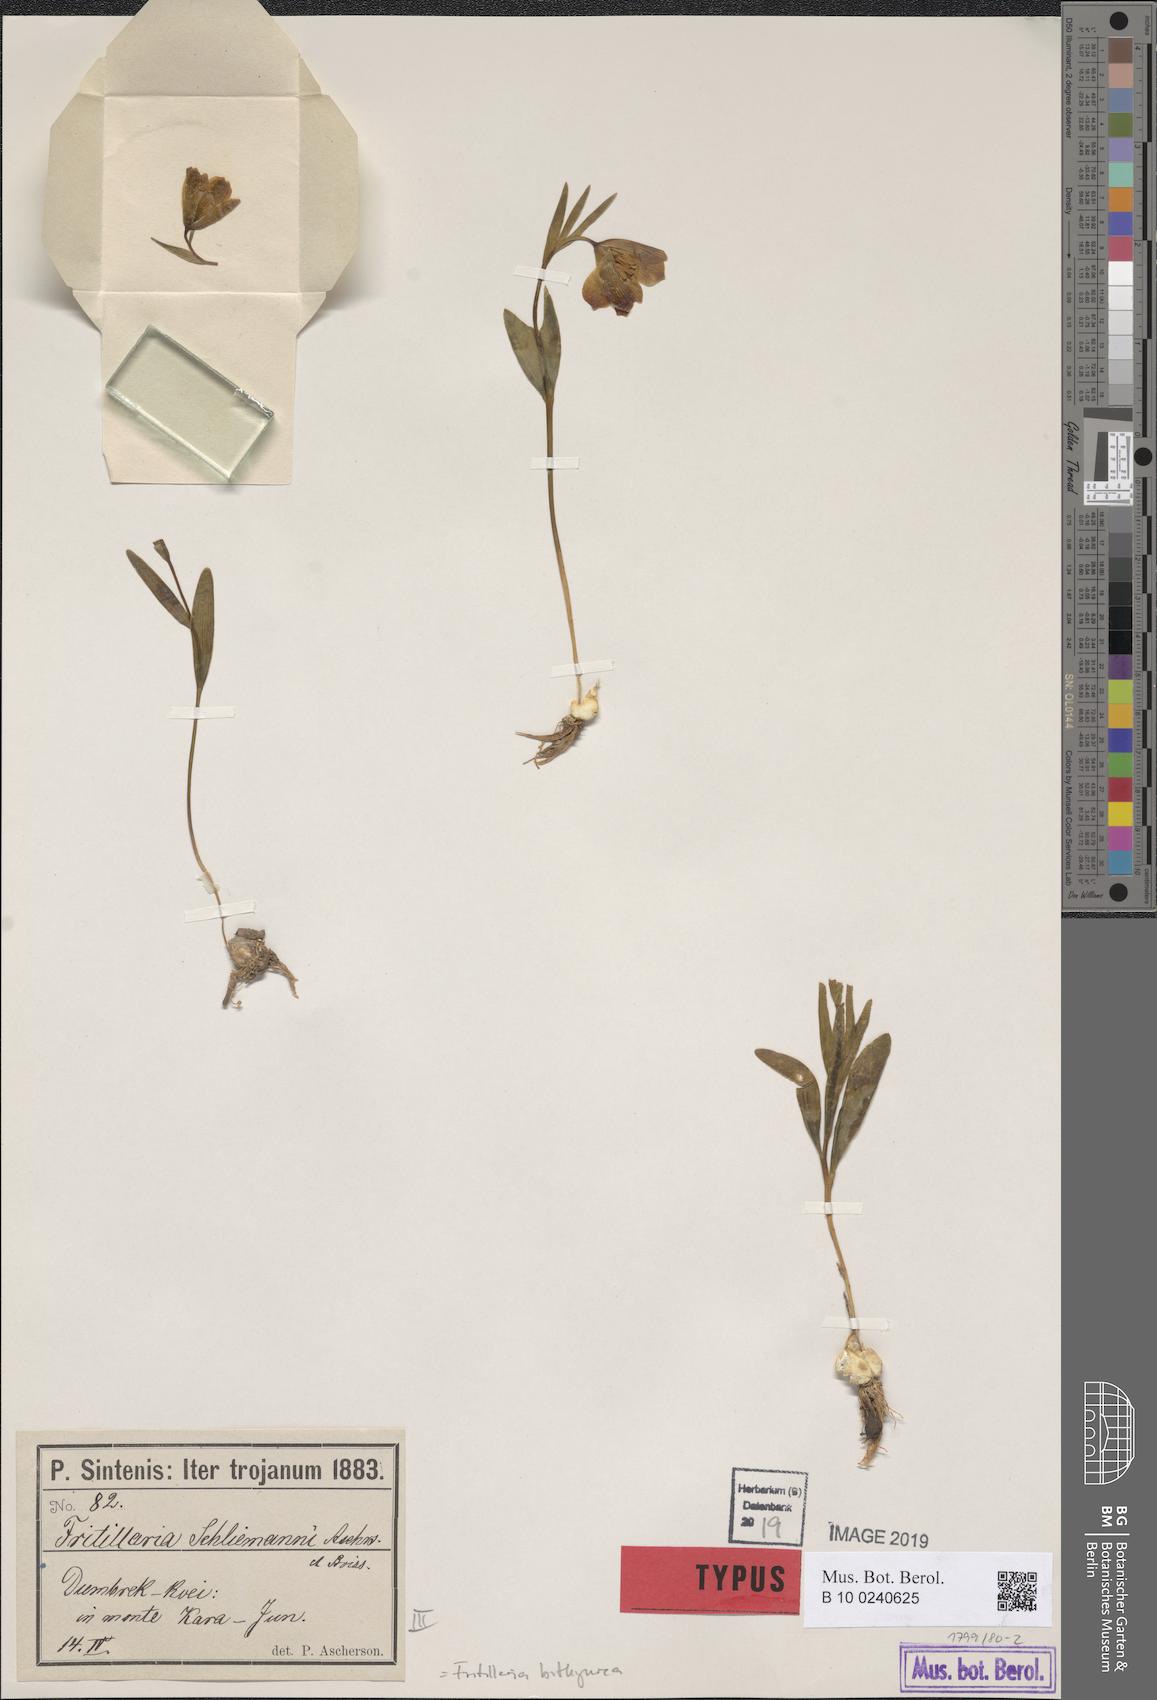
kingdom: Plantae
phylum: Tracheophyta
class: Liliopsida
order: Liliales
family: Liliaceae
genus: Fritillaria
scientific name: Fritillaria bithynica
